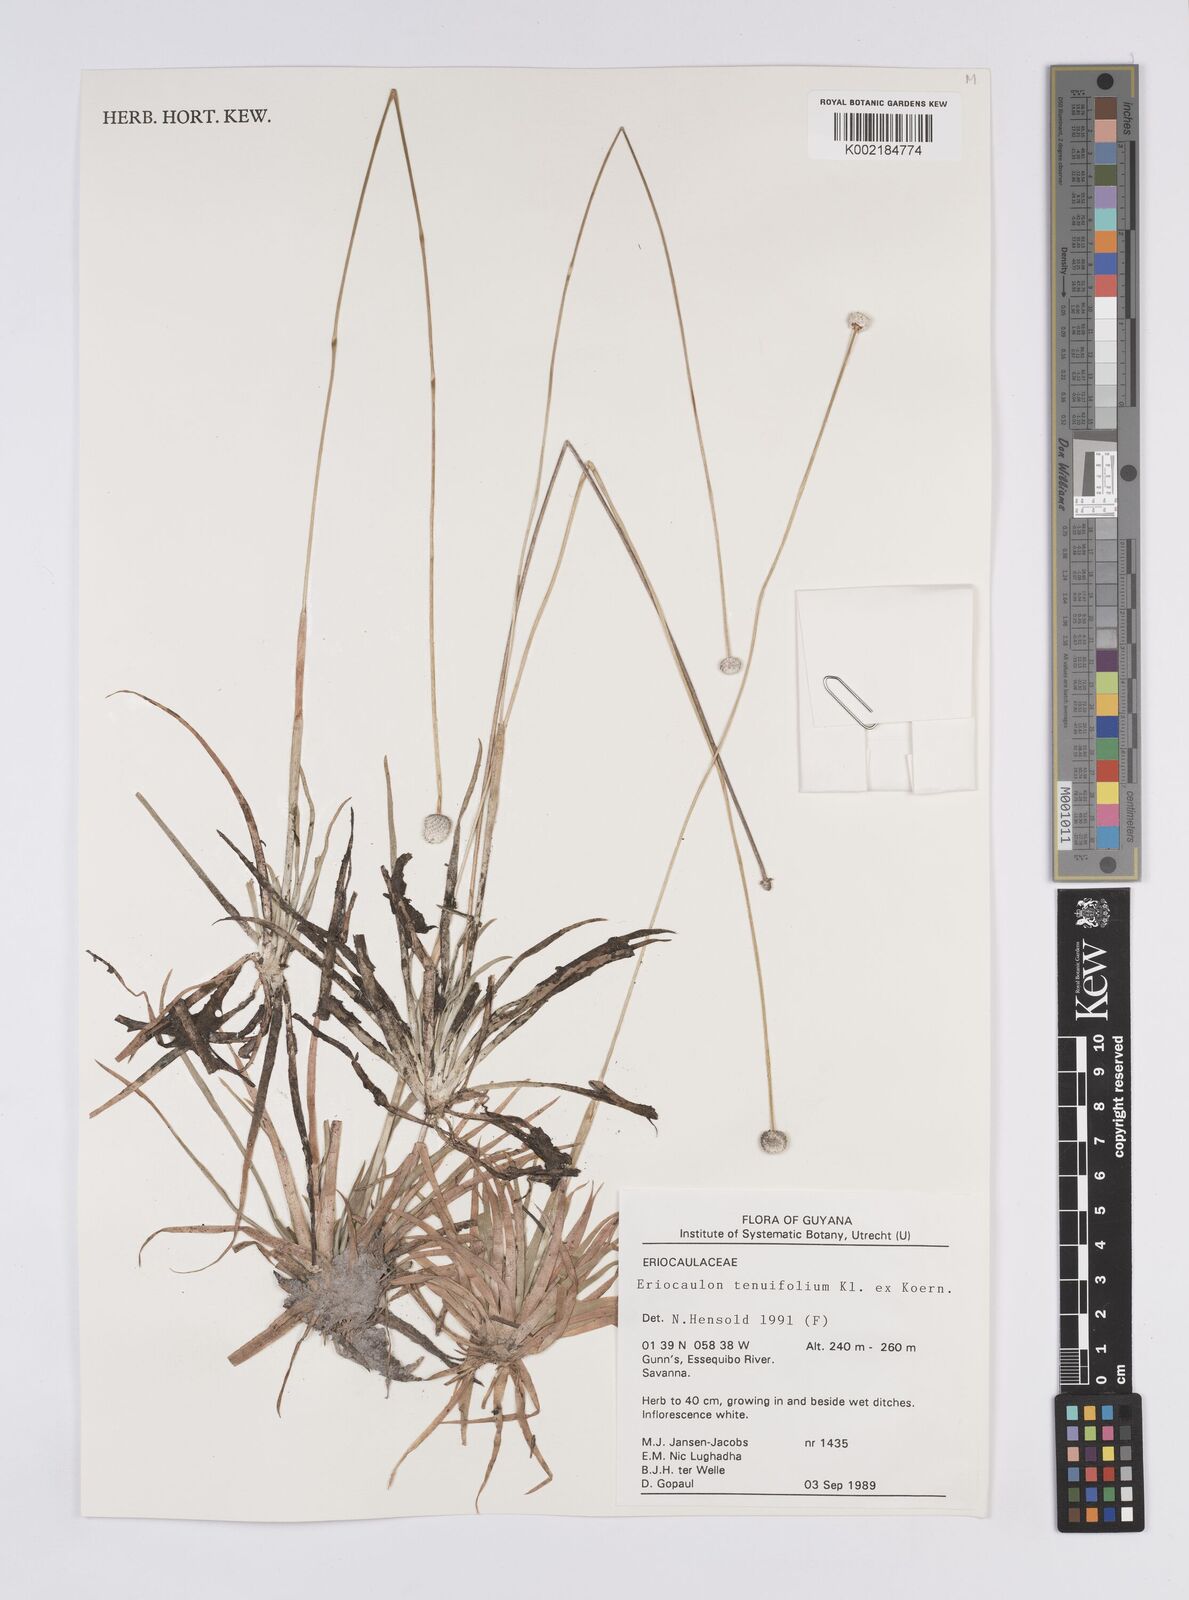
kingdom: Plantae
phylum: Tracheophyta
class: Liliopsida
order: Poales
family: Eriocaulaceae
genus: Eriocaulon
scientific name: Eriocaulon tenuifolium
